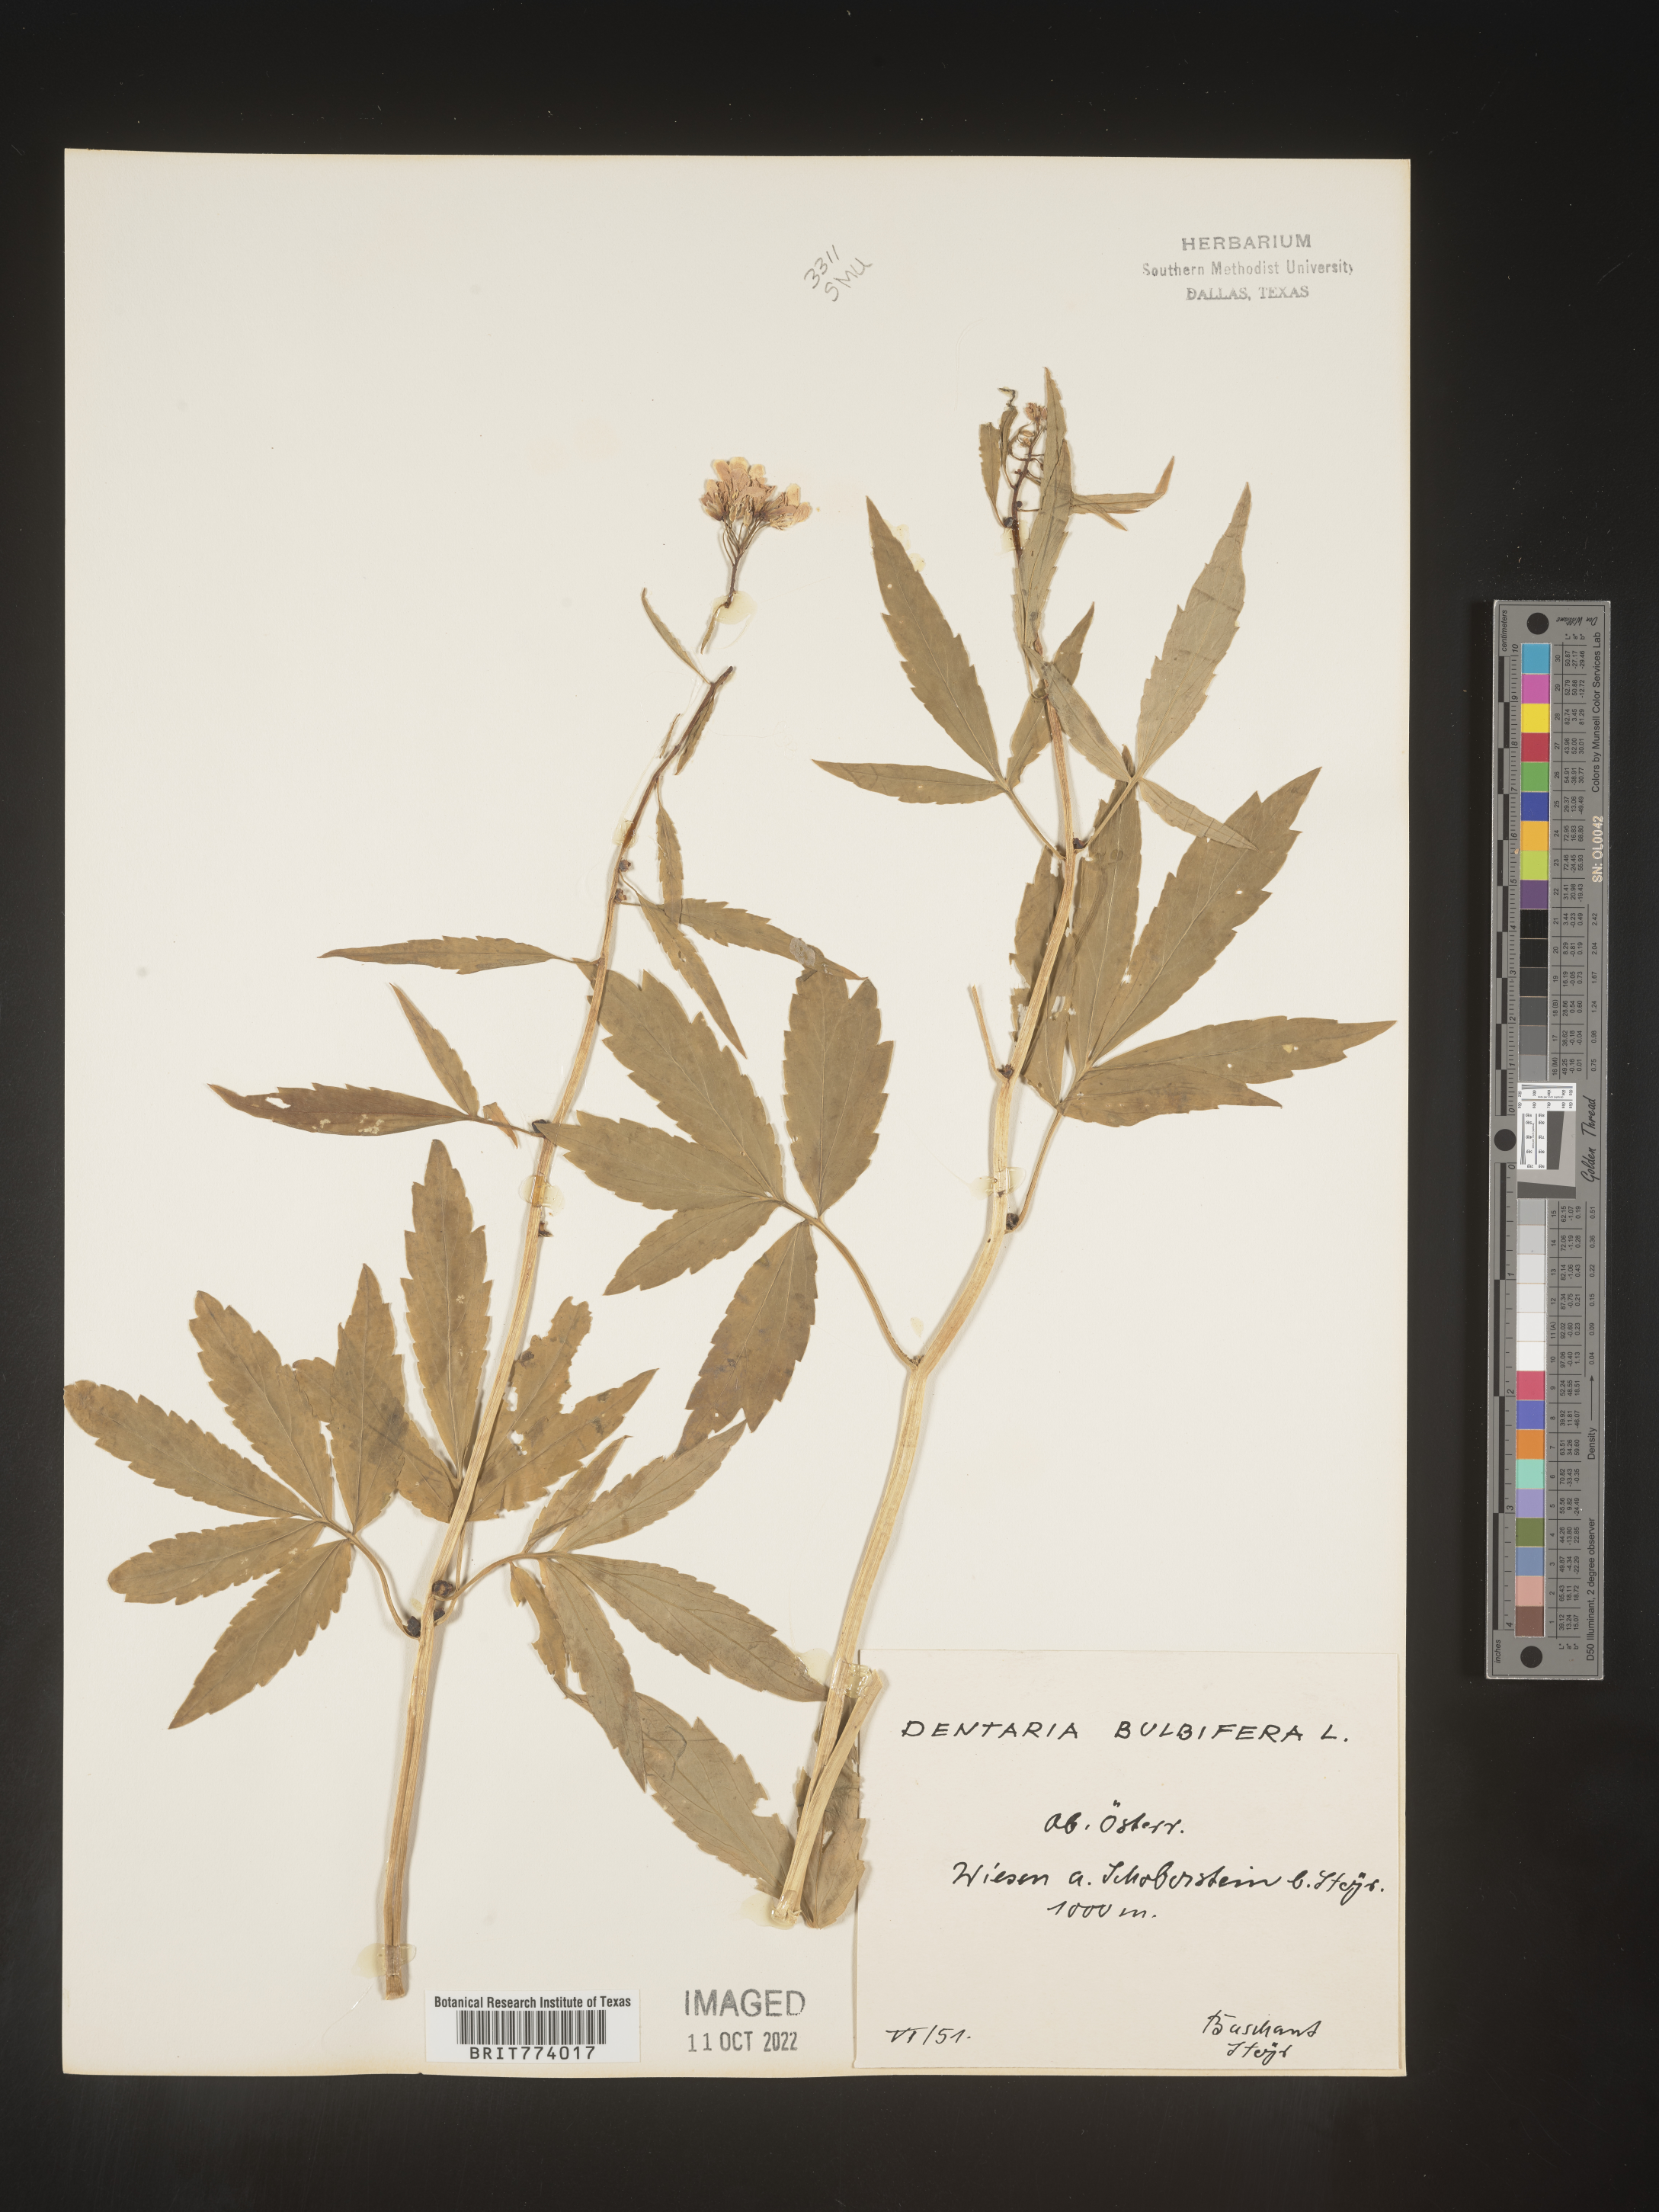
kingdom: Plantae
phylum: Tracheophyta
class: Magnoliopsida
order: Brassicales
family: Brassicaceae
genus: Cardamine
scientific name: Cardamine
